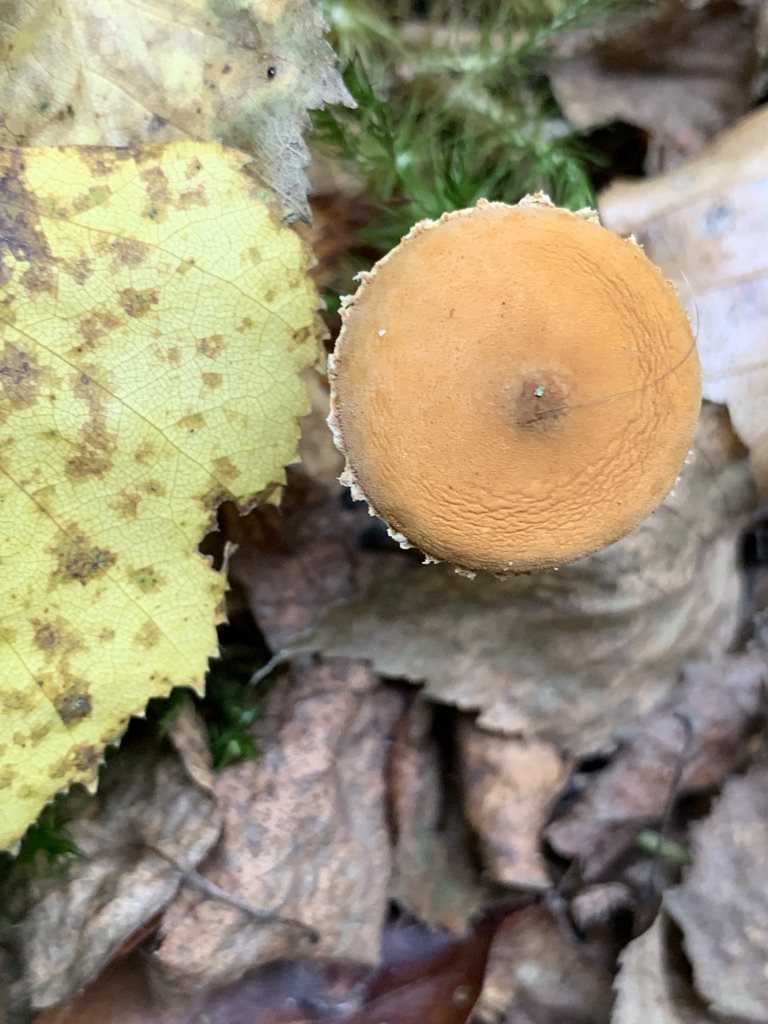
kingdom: Fungi
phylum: Basidiomycota
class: Agaricomycetes
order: Agaricales
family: Tricholomataceae
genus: Cystoderma
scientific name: Cystoderma amianthinum
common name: okkergul grynhat
